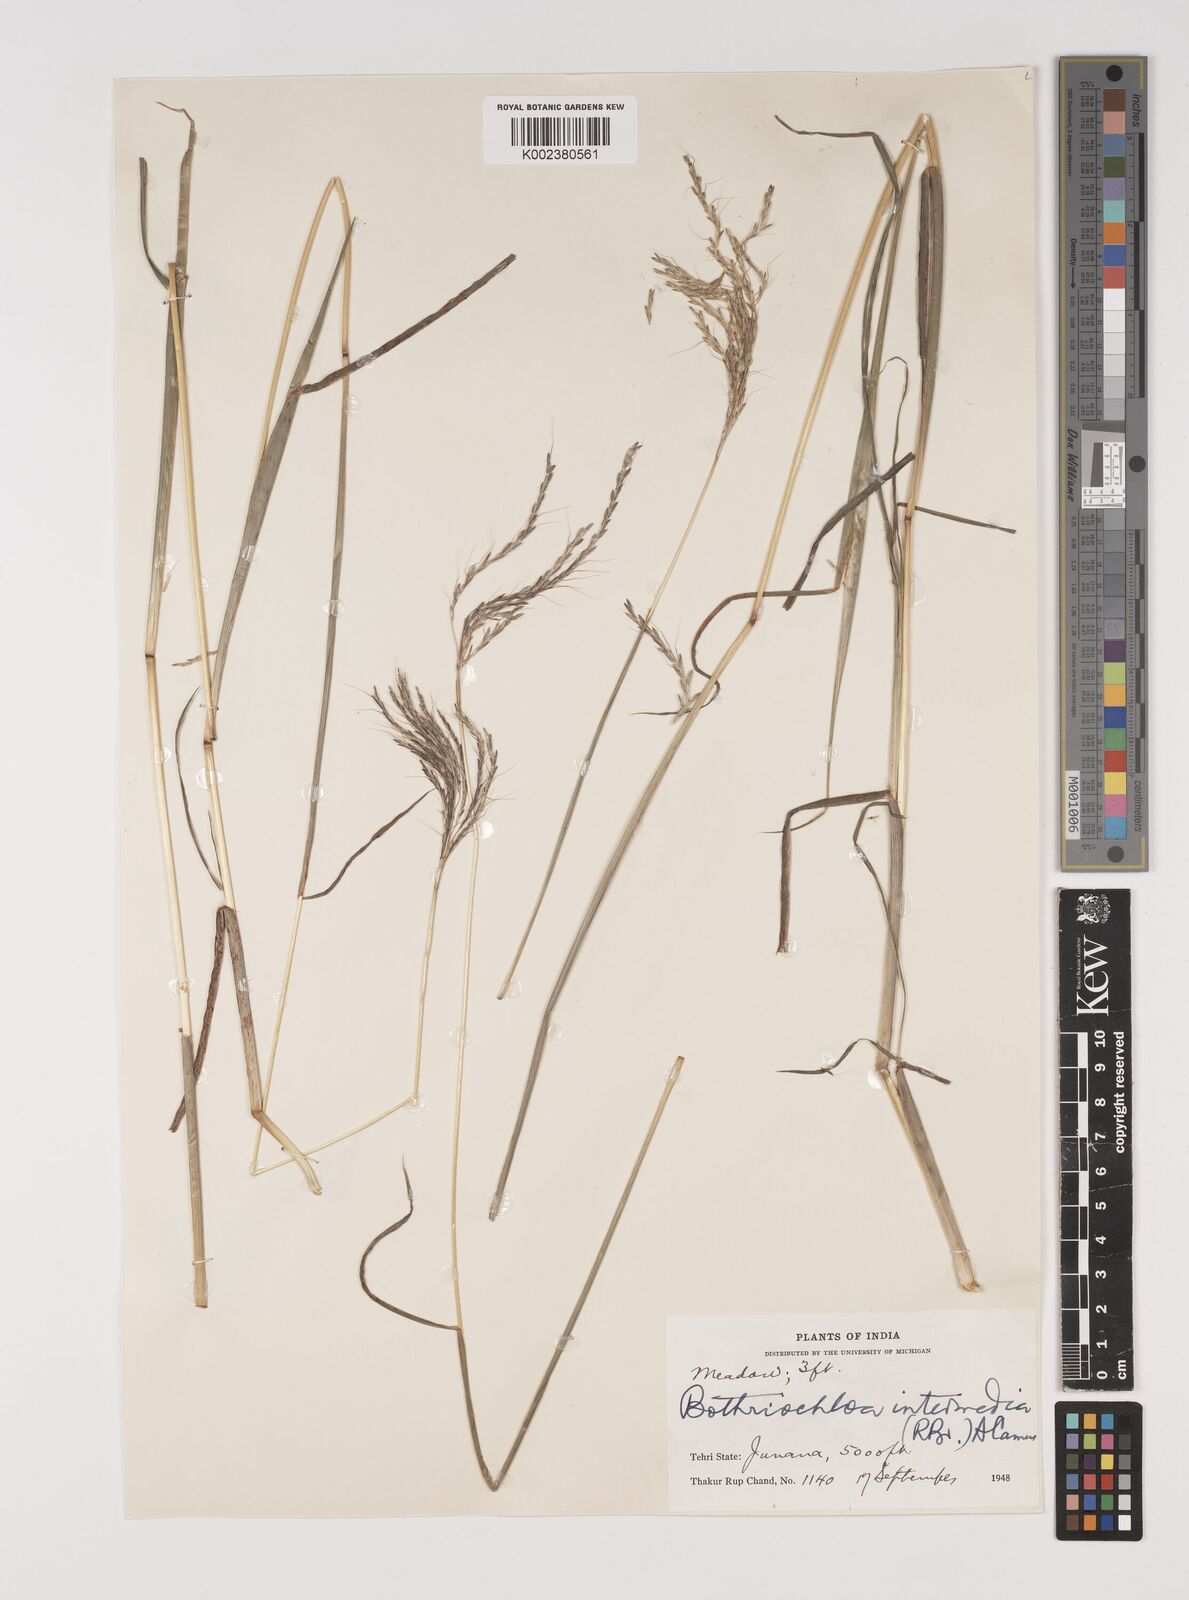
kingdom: Plantae
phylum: Tracheophyta
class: Liliopsida
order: Poales
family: Poaceae
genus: Bothriochloa
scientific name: Bothriochloa bladhii
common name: Caucasian bluestem
